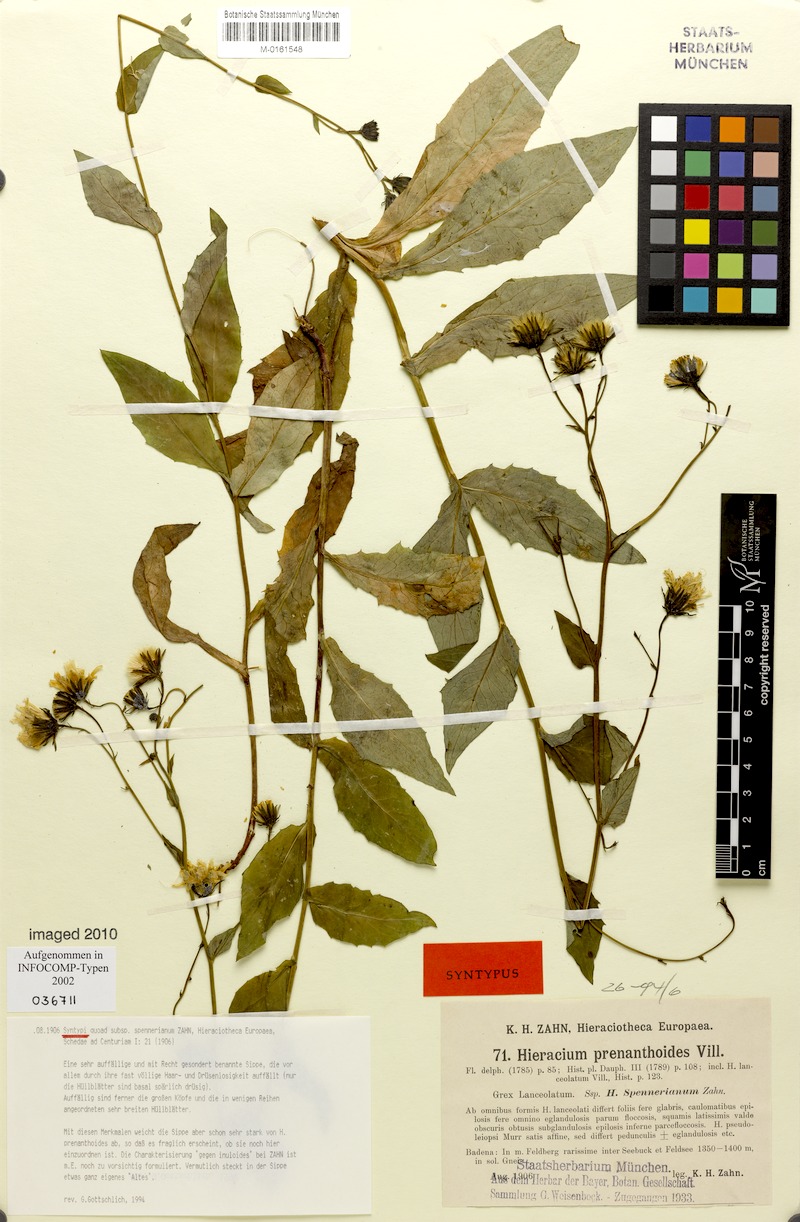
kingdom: Plantae
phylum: Tracheophyta
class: Magnoliopsida
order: Asterales
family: Asteraceae
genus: Hieracium
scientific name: Hieracium prenanthoides
